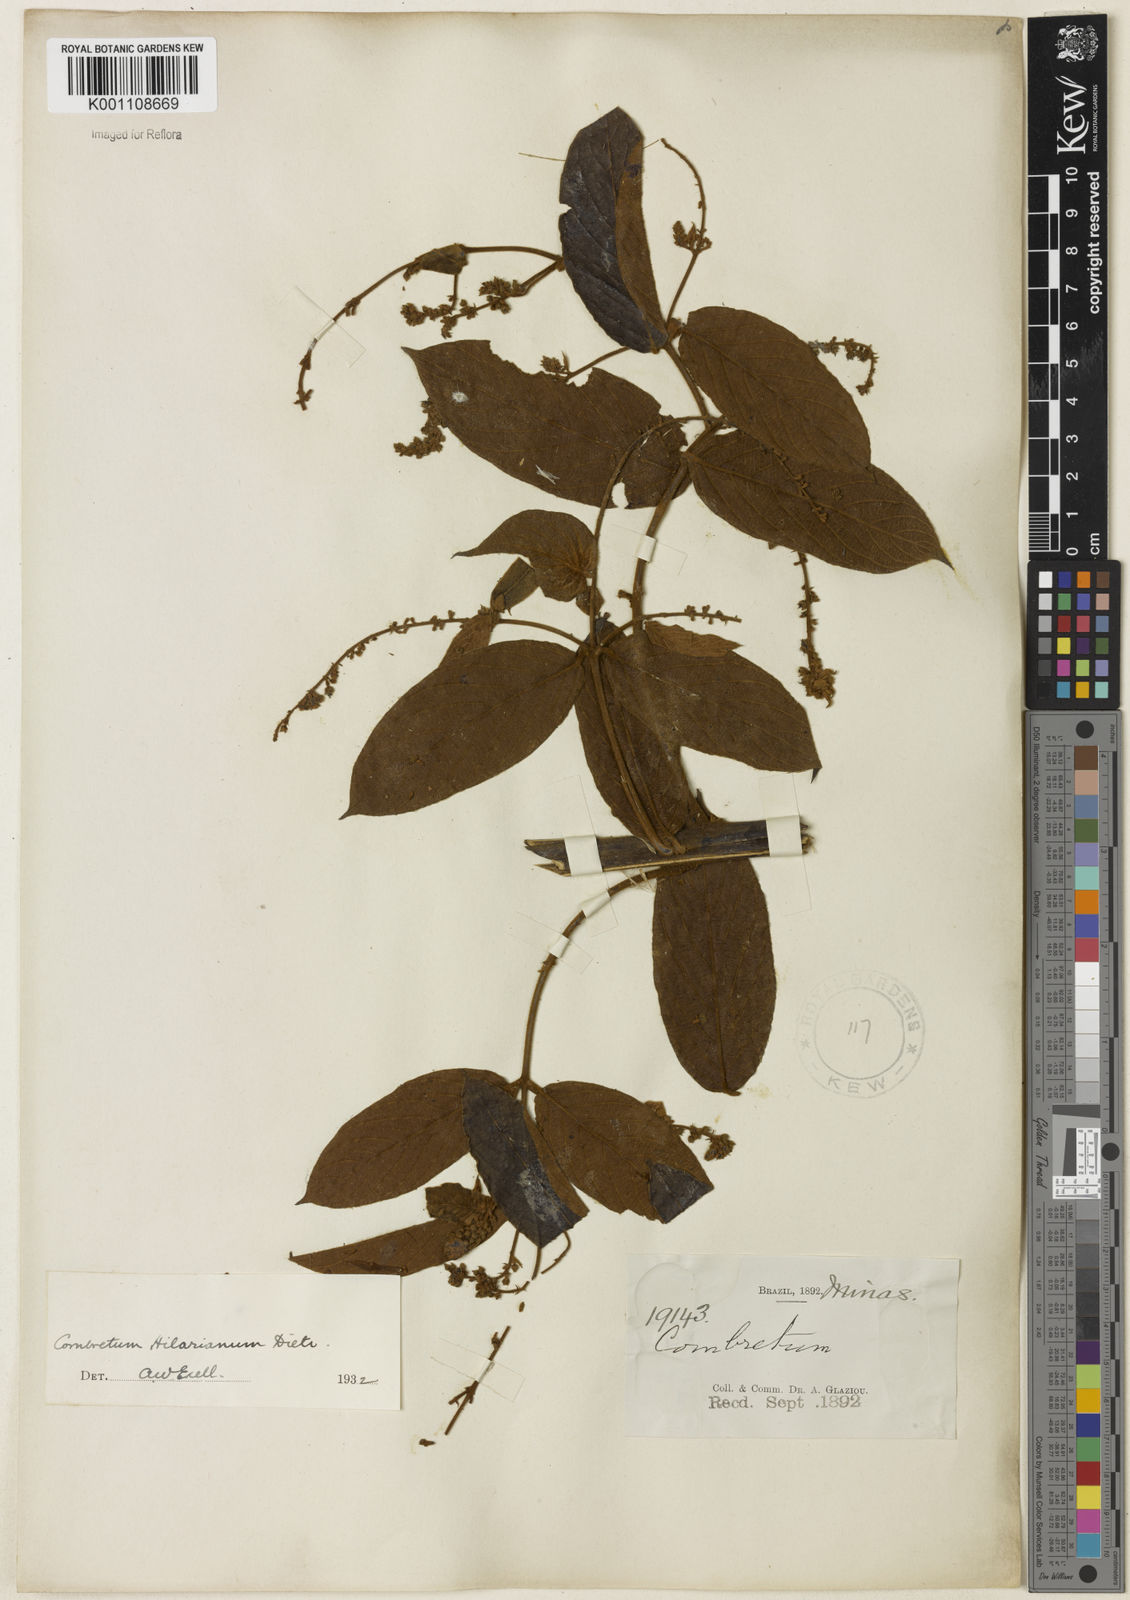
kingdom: Plantae
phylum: Tracheophyta
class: Magnoliopsida
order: Myrtales
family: Combretaceae
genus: Combretum
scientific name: Combretum hilarianum
